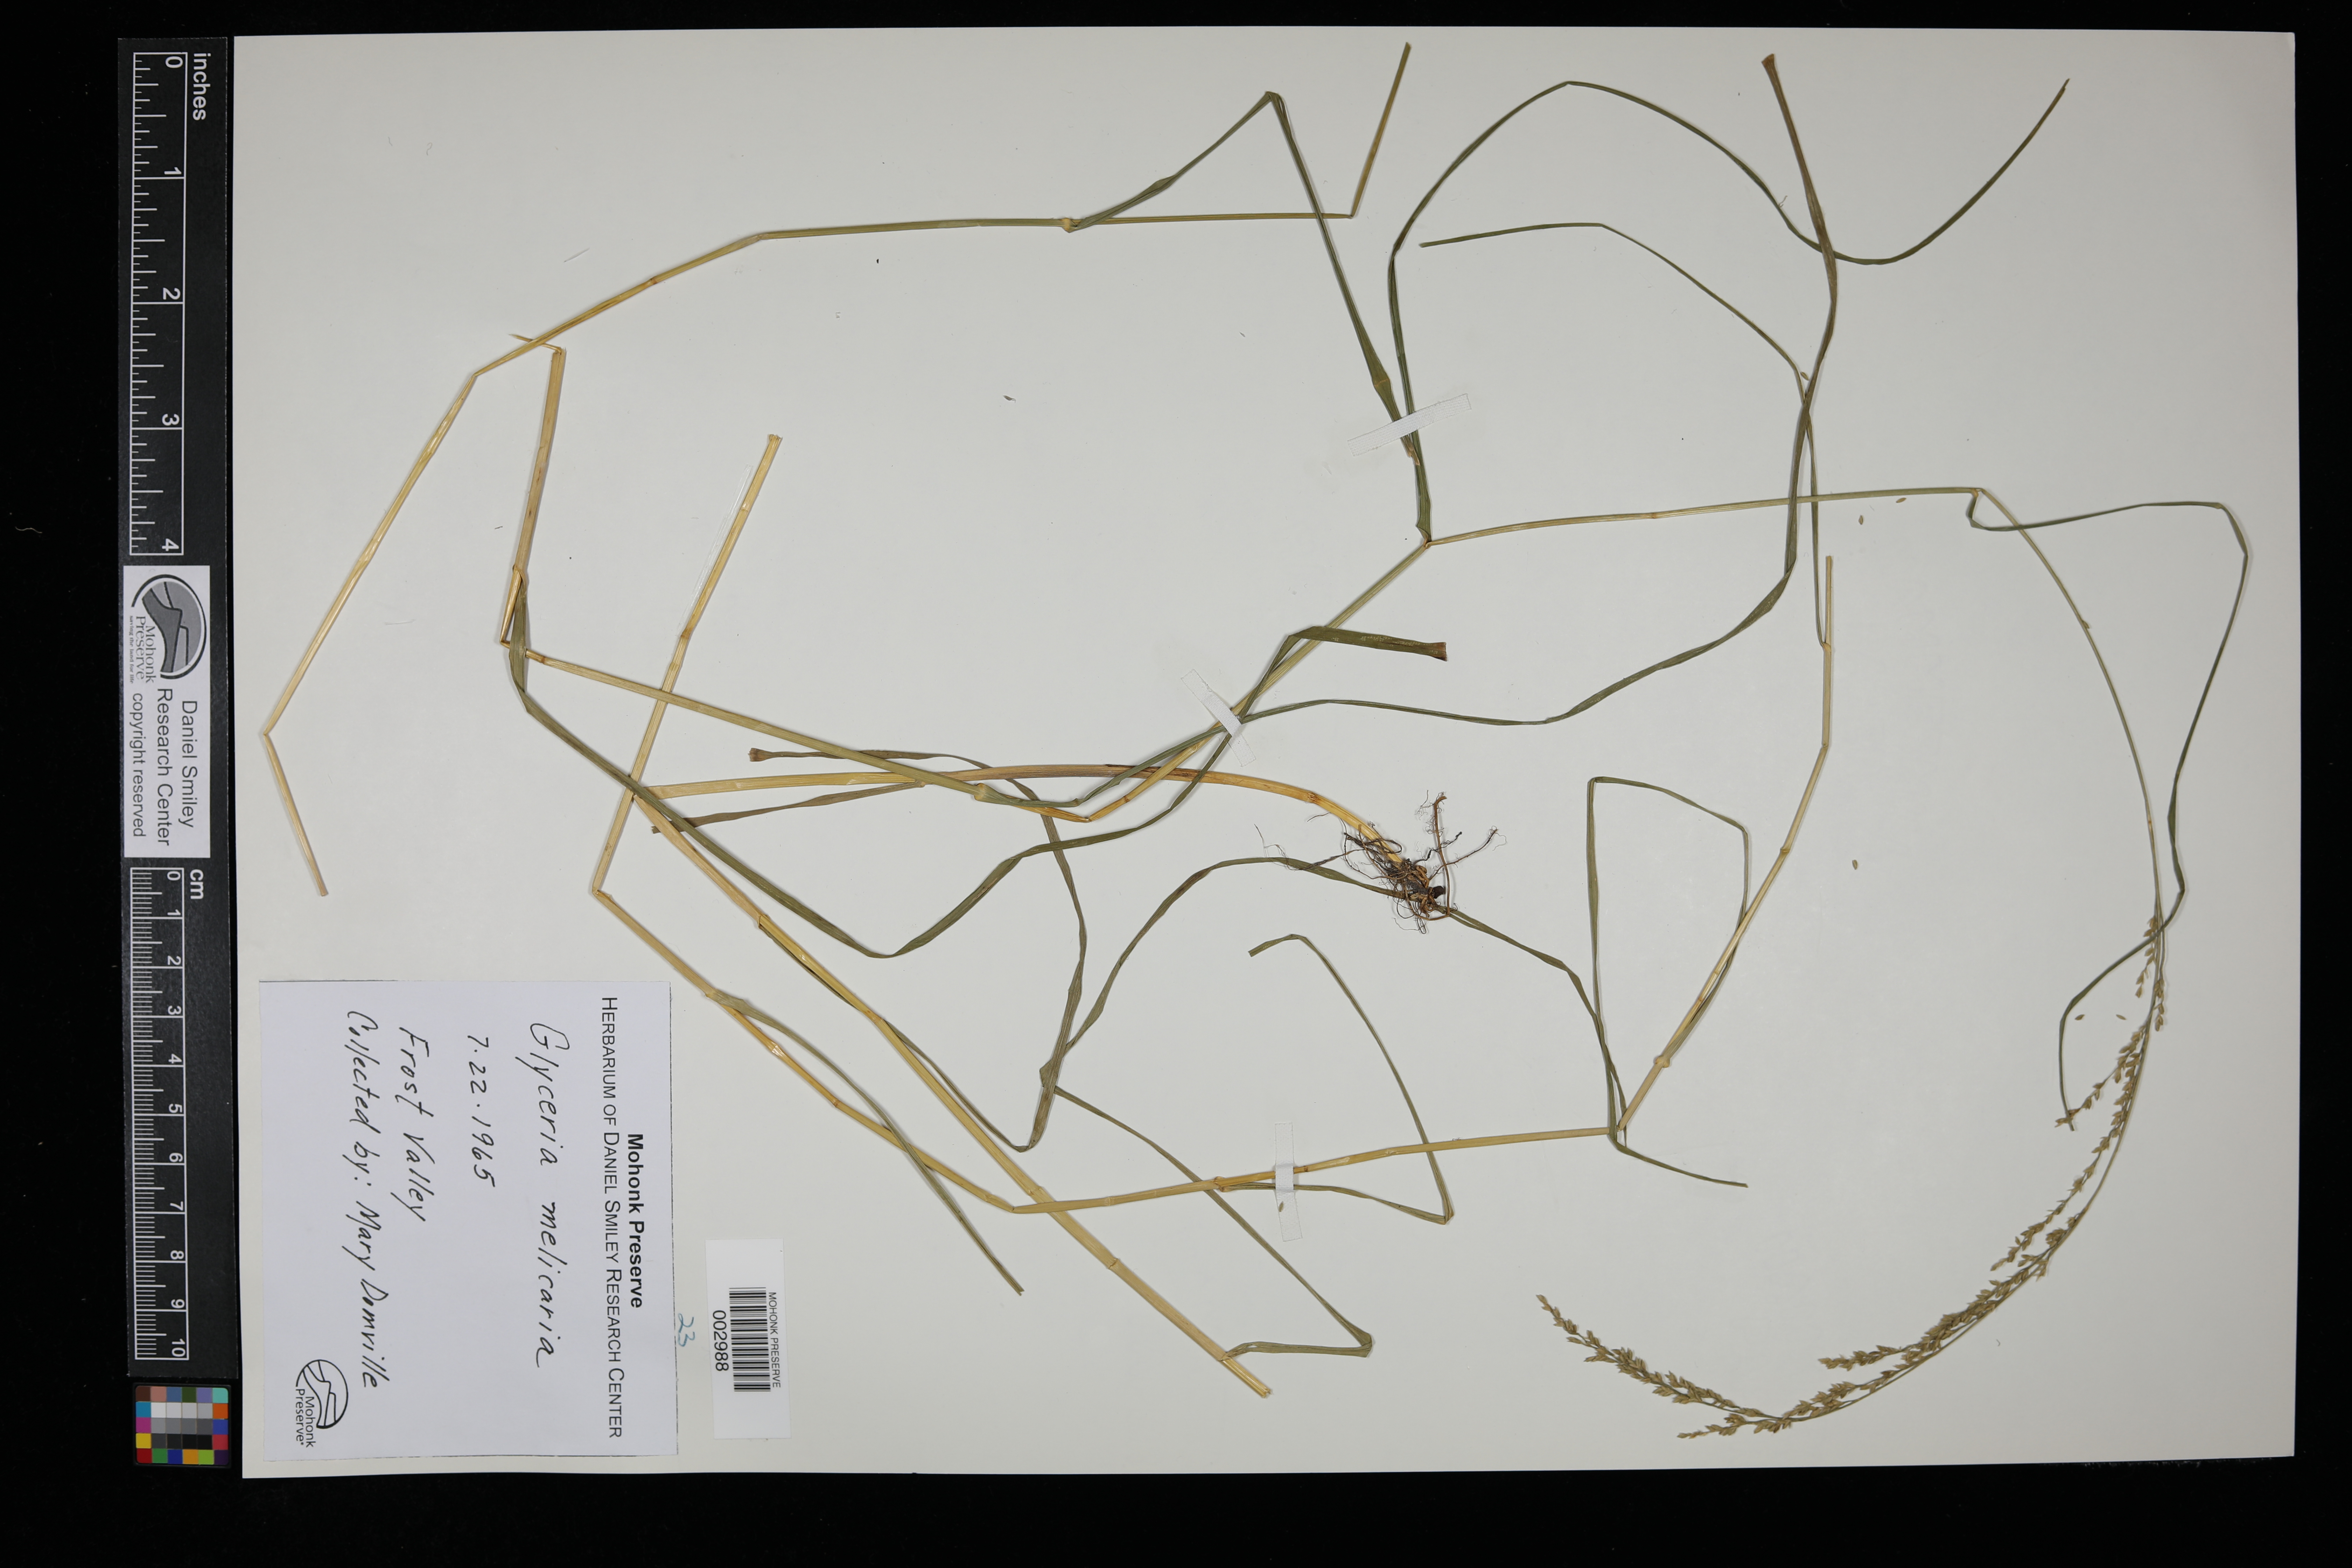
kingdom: Plantae
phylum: Tracheophyta
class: Liliopsida
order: Poales
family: Poaceae
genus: Glyceria
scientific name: Glyceria melicaria
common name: Long mannagrass
